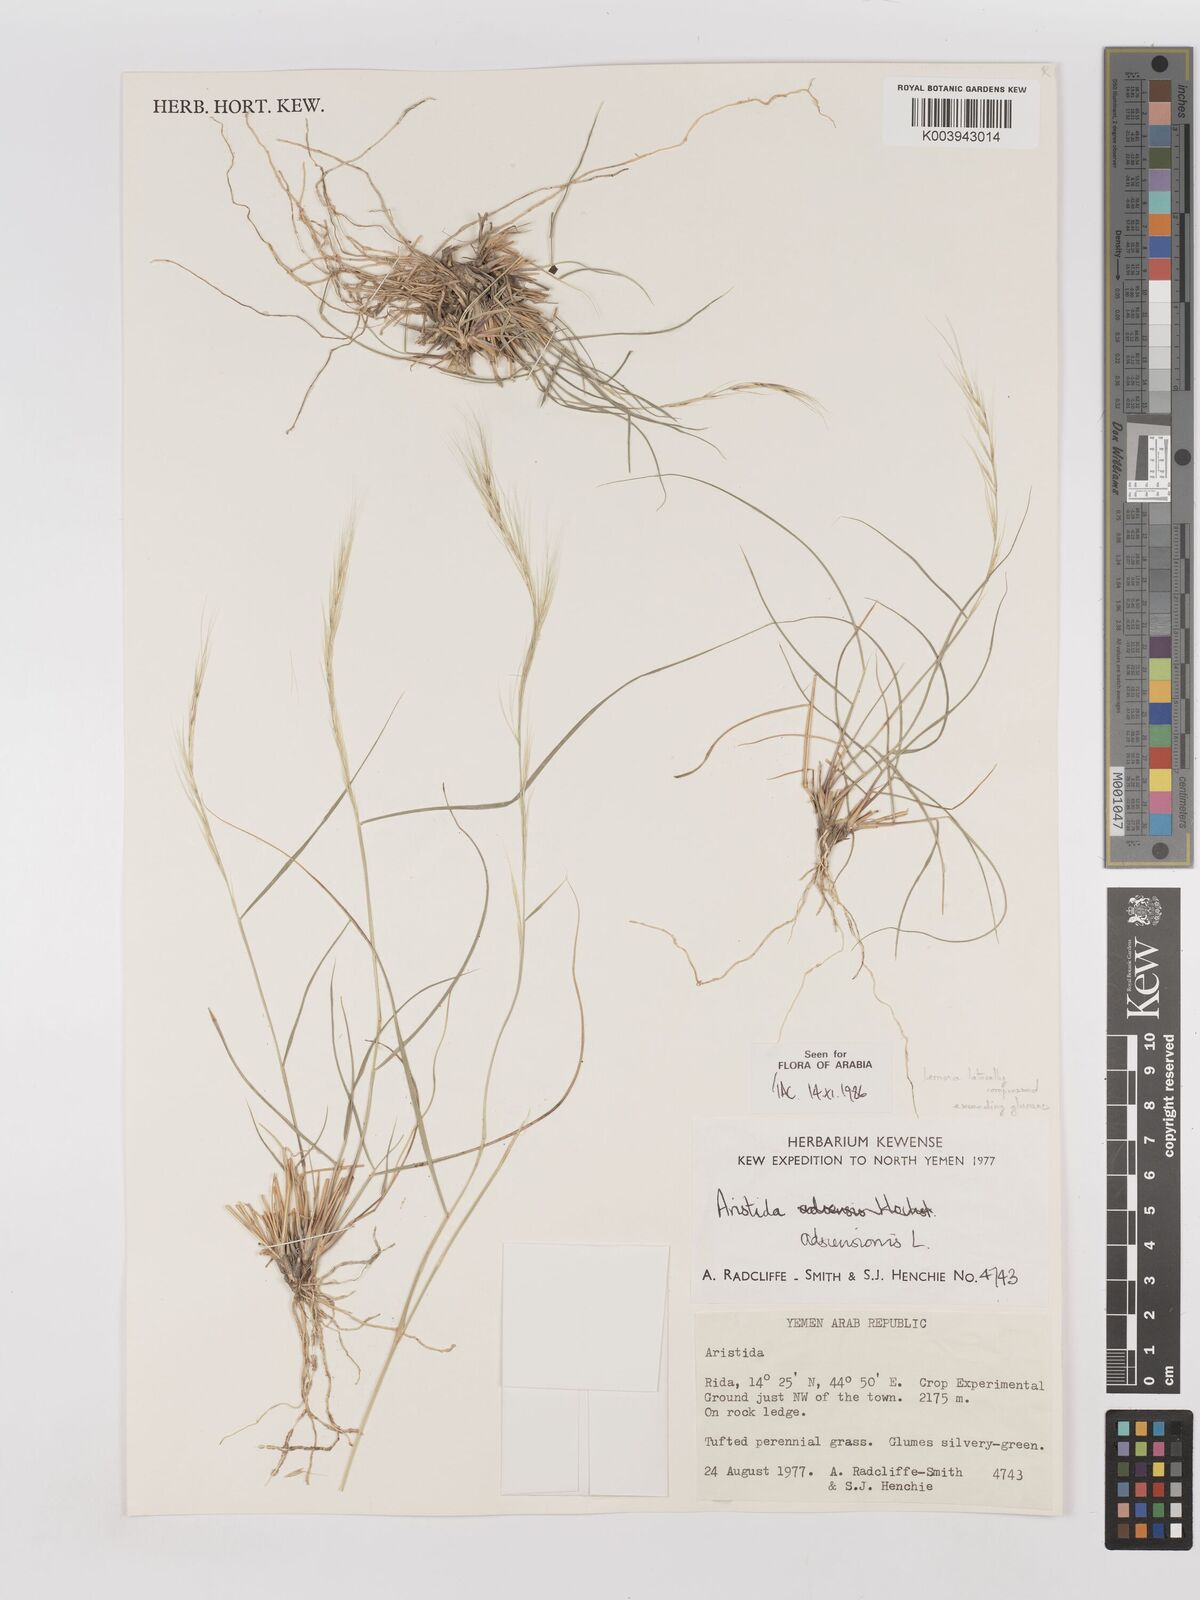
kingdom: Plantae
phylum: Tracheophyta
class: Liliopsida
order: Poales
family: Poaceae
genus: Aristida
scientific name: Aristida adscensionis
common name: Sixweeks threeawn
